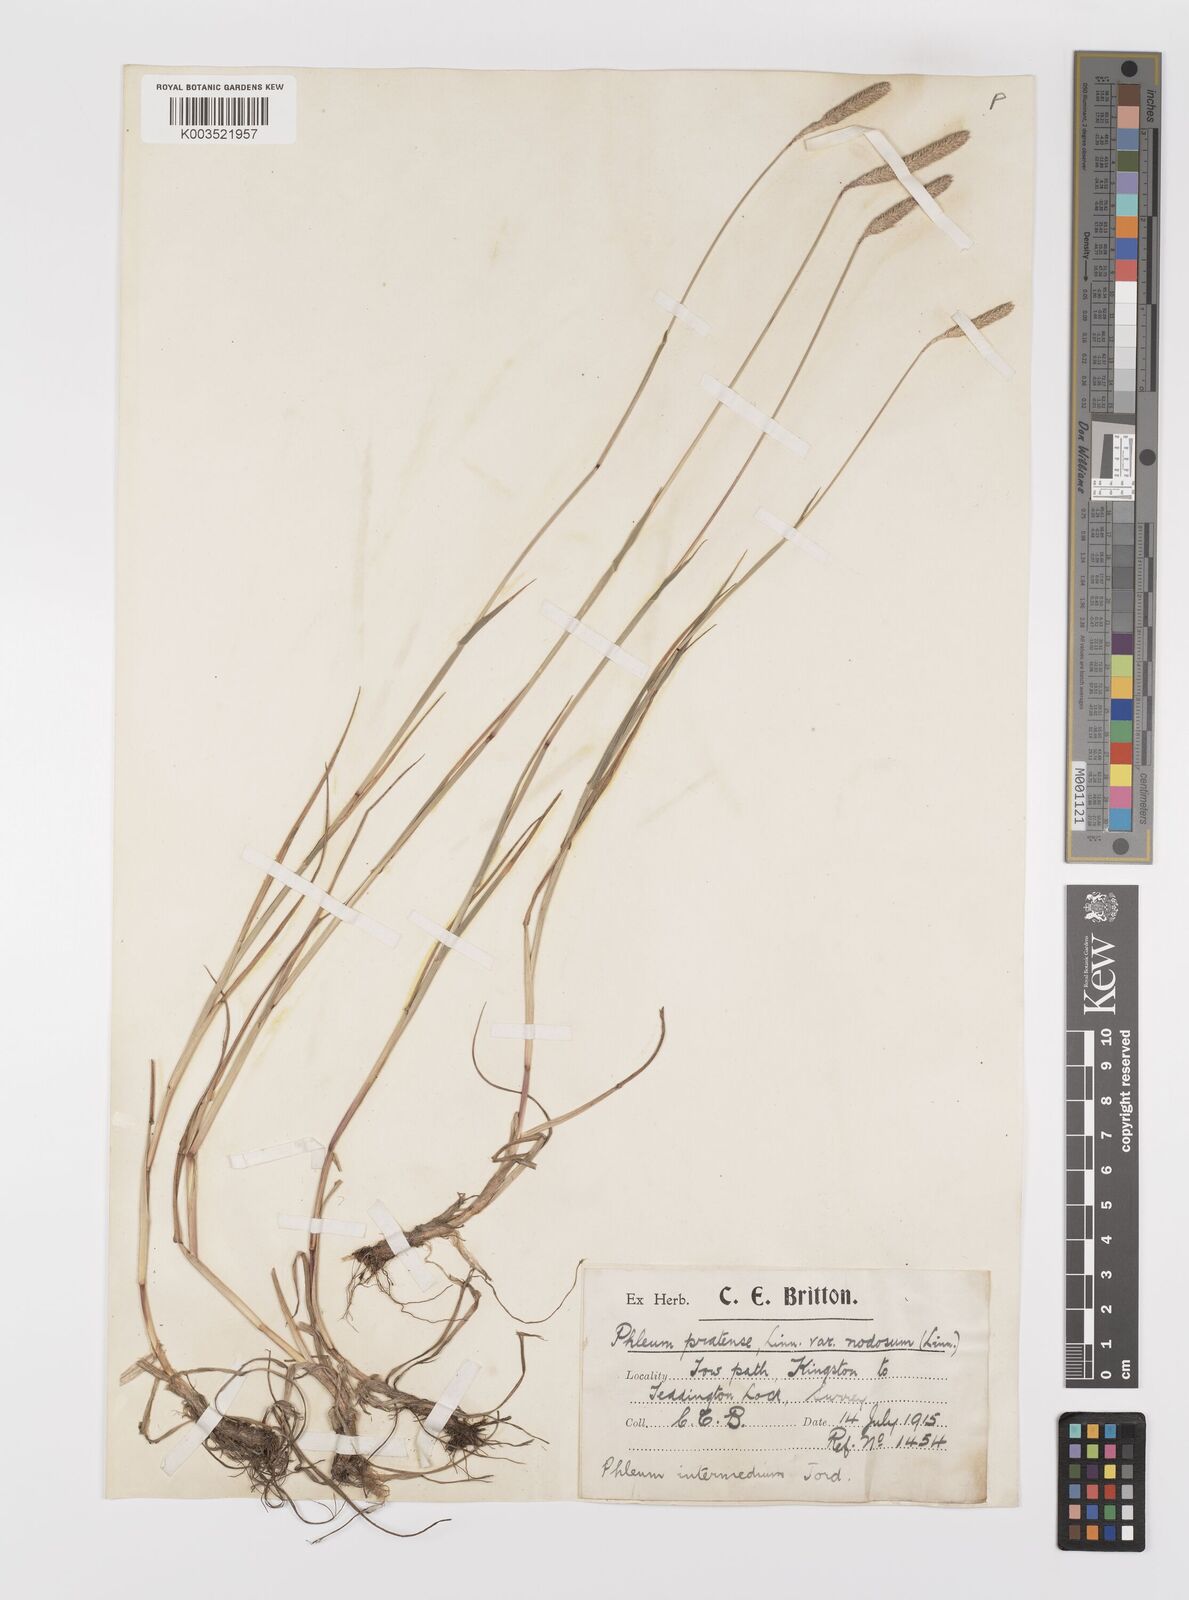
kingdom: Plantae
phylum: Tracheophyta
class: Liliopsida
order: Poales
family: Poaceae
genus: Phleum
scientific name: Phleum bertolonii
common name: Smaller cat's-tail
